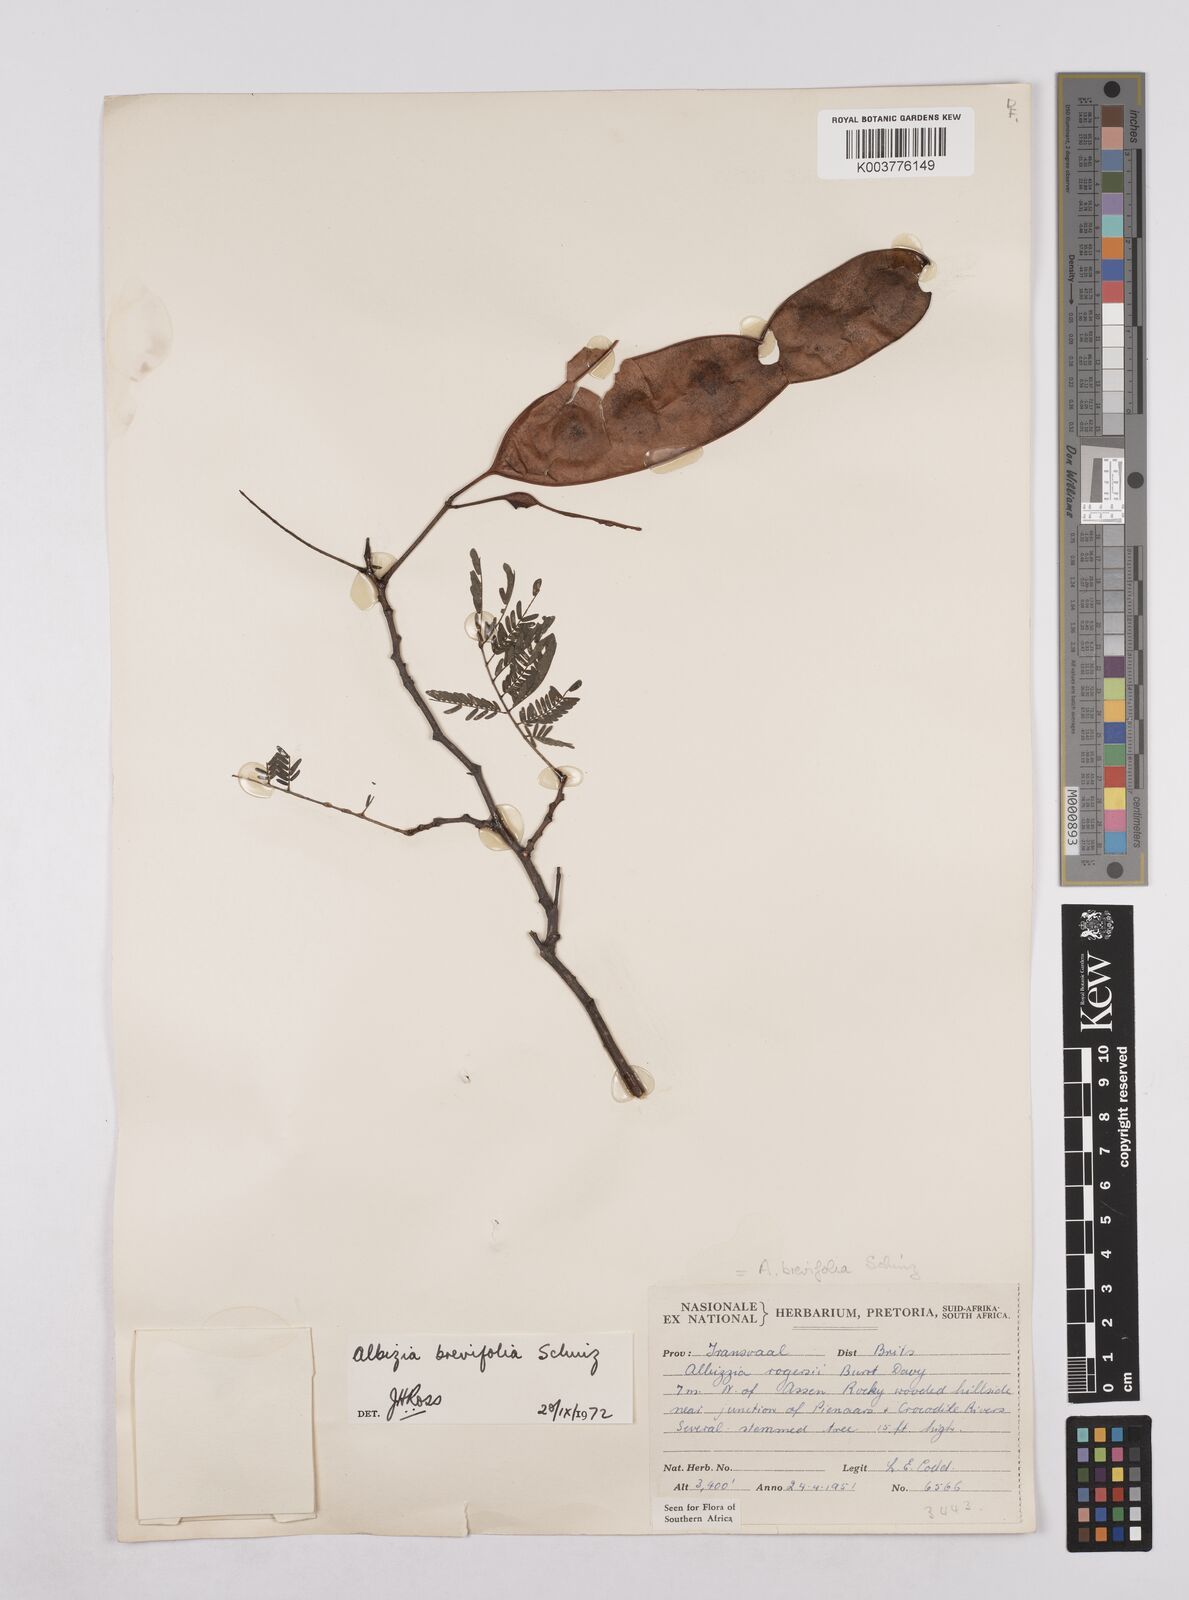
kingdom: Plantae
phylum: Tracheophyta
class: Magnoliopsida
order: Fabales
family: Fabaceae
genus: Albizia
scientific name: Albizia brevifolia
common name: Rock false-thorn
